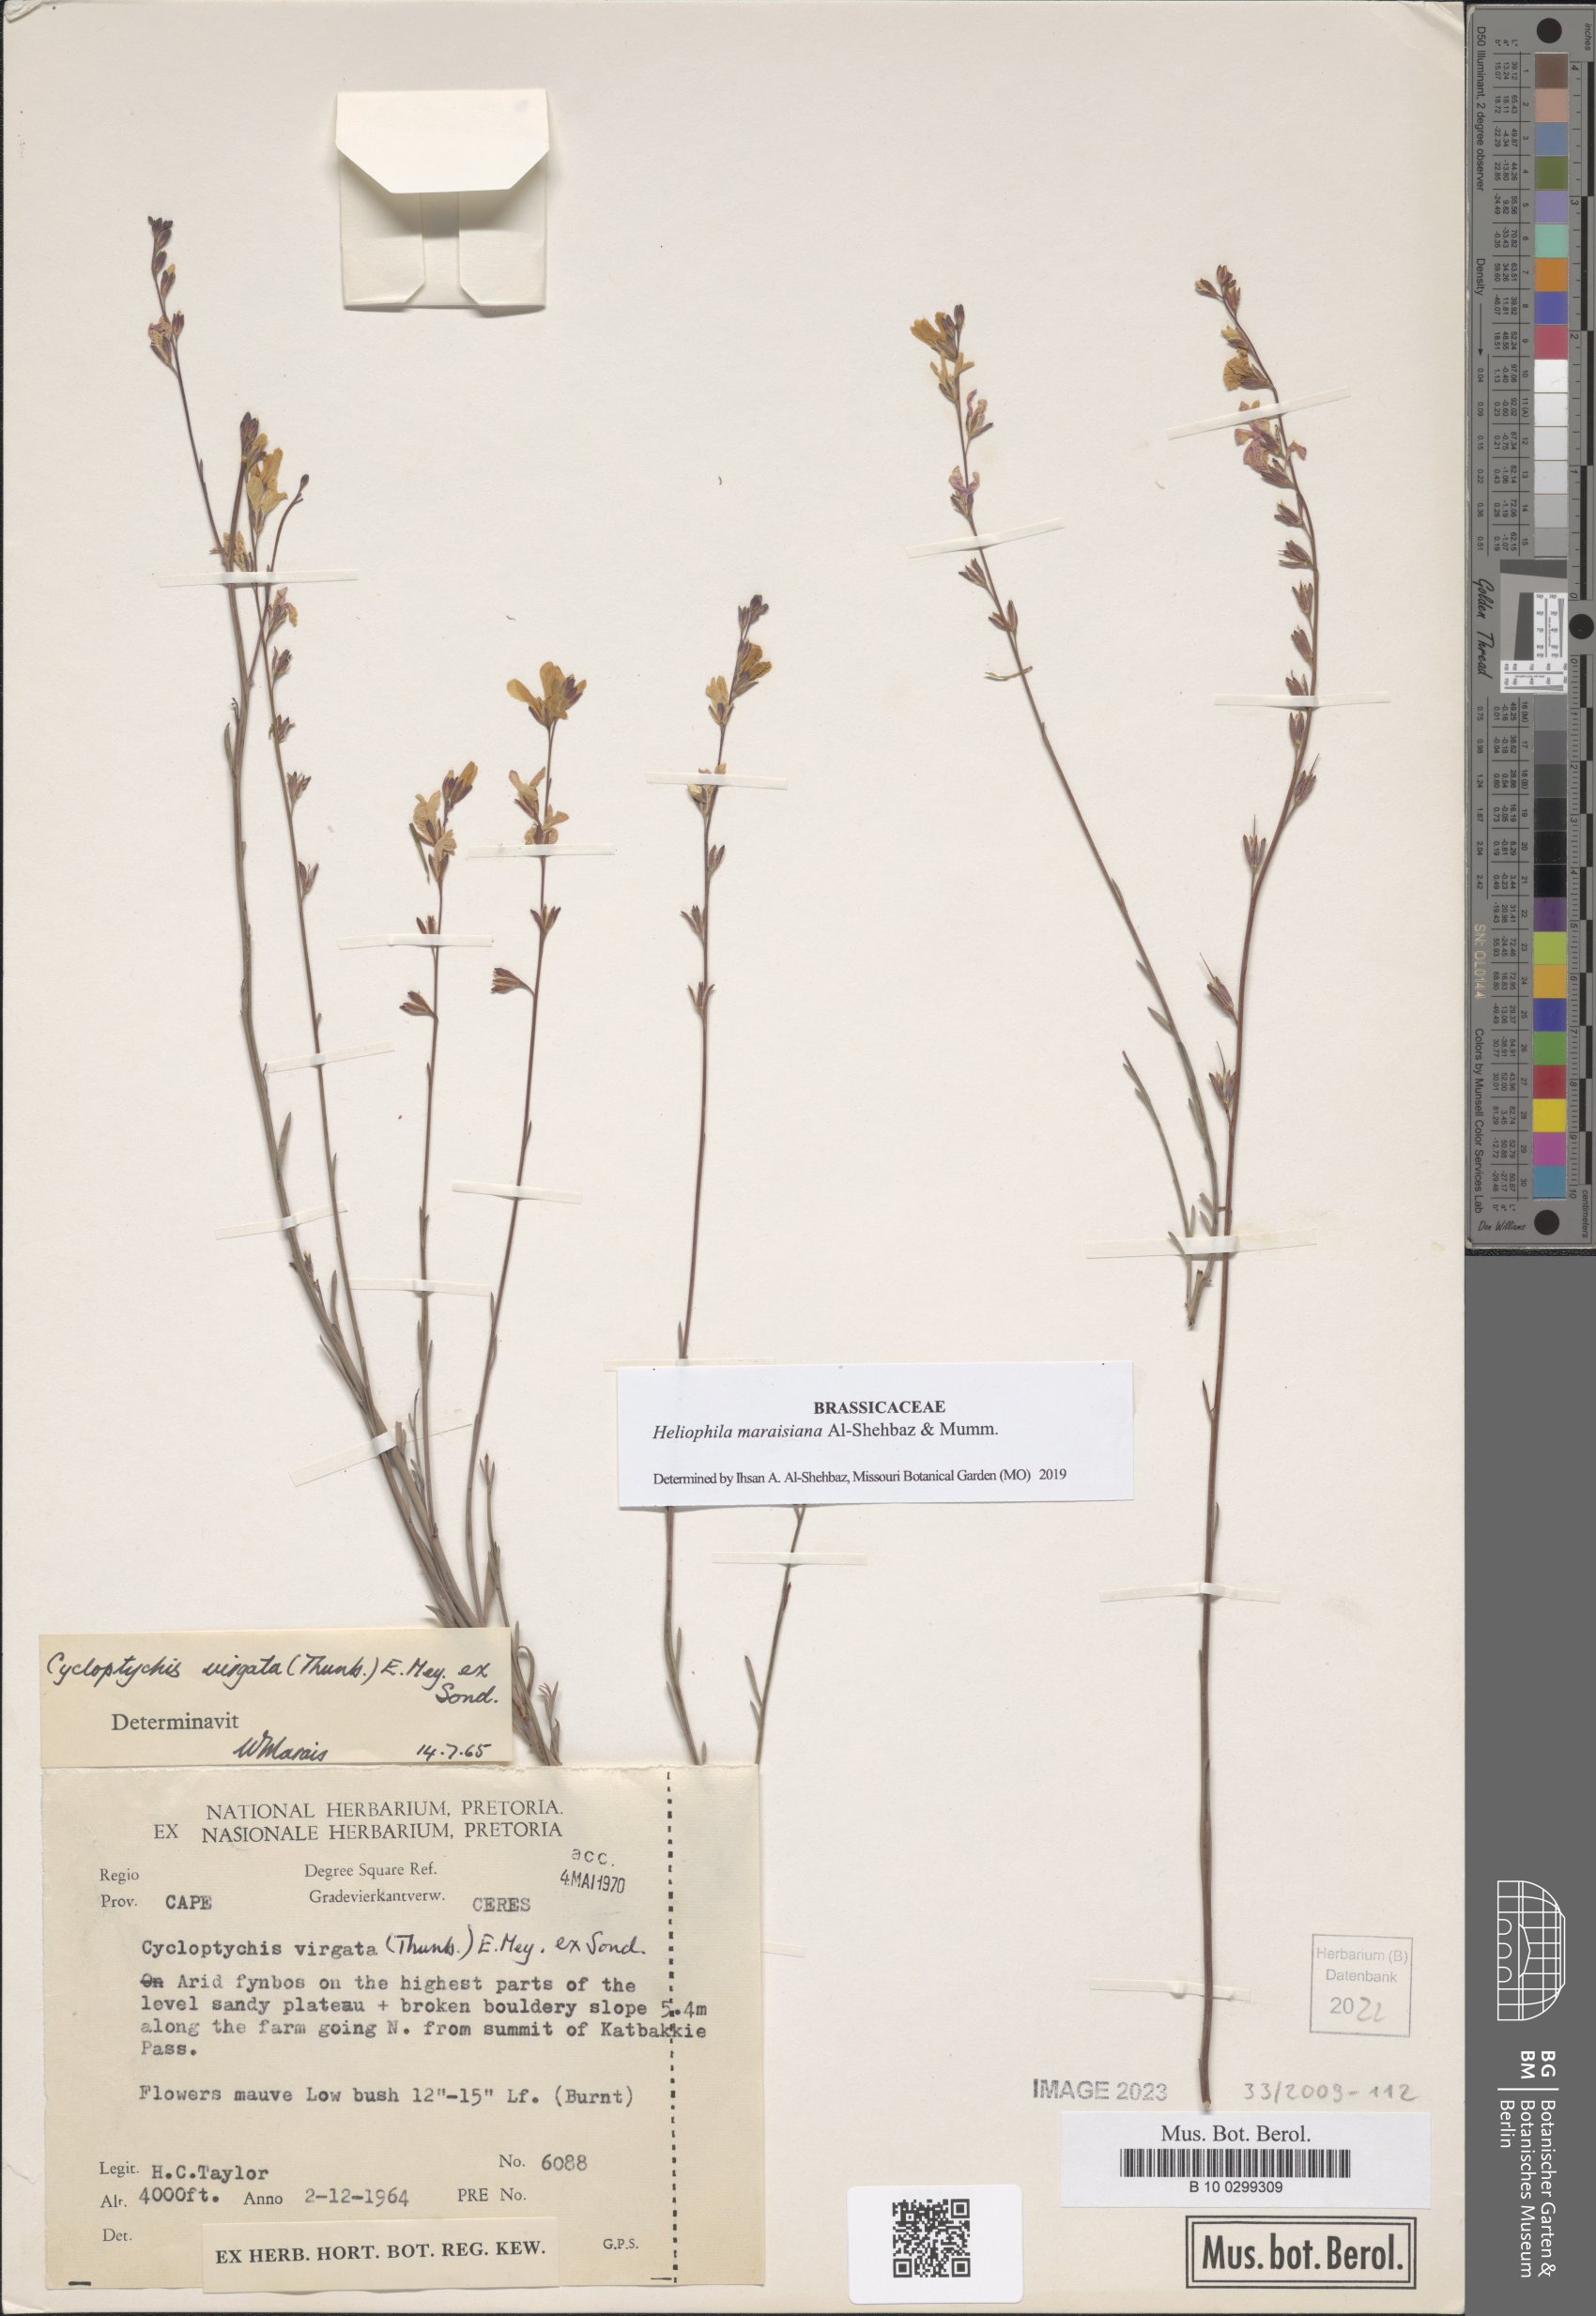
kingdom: Plantae
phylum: Tracheophyta
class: Magnoliopsida
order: Brassicales
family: Brassicaceae
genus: Heliophila
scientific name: Heliophila maraisiana
